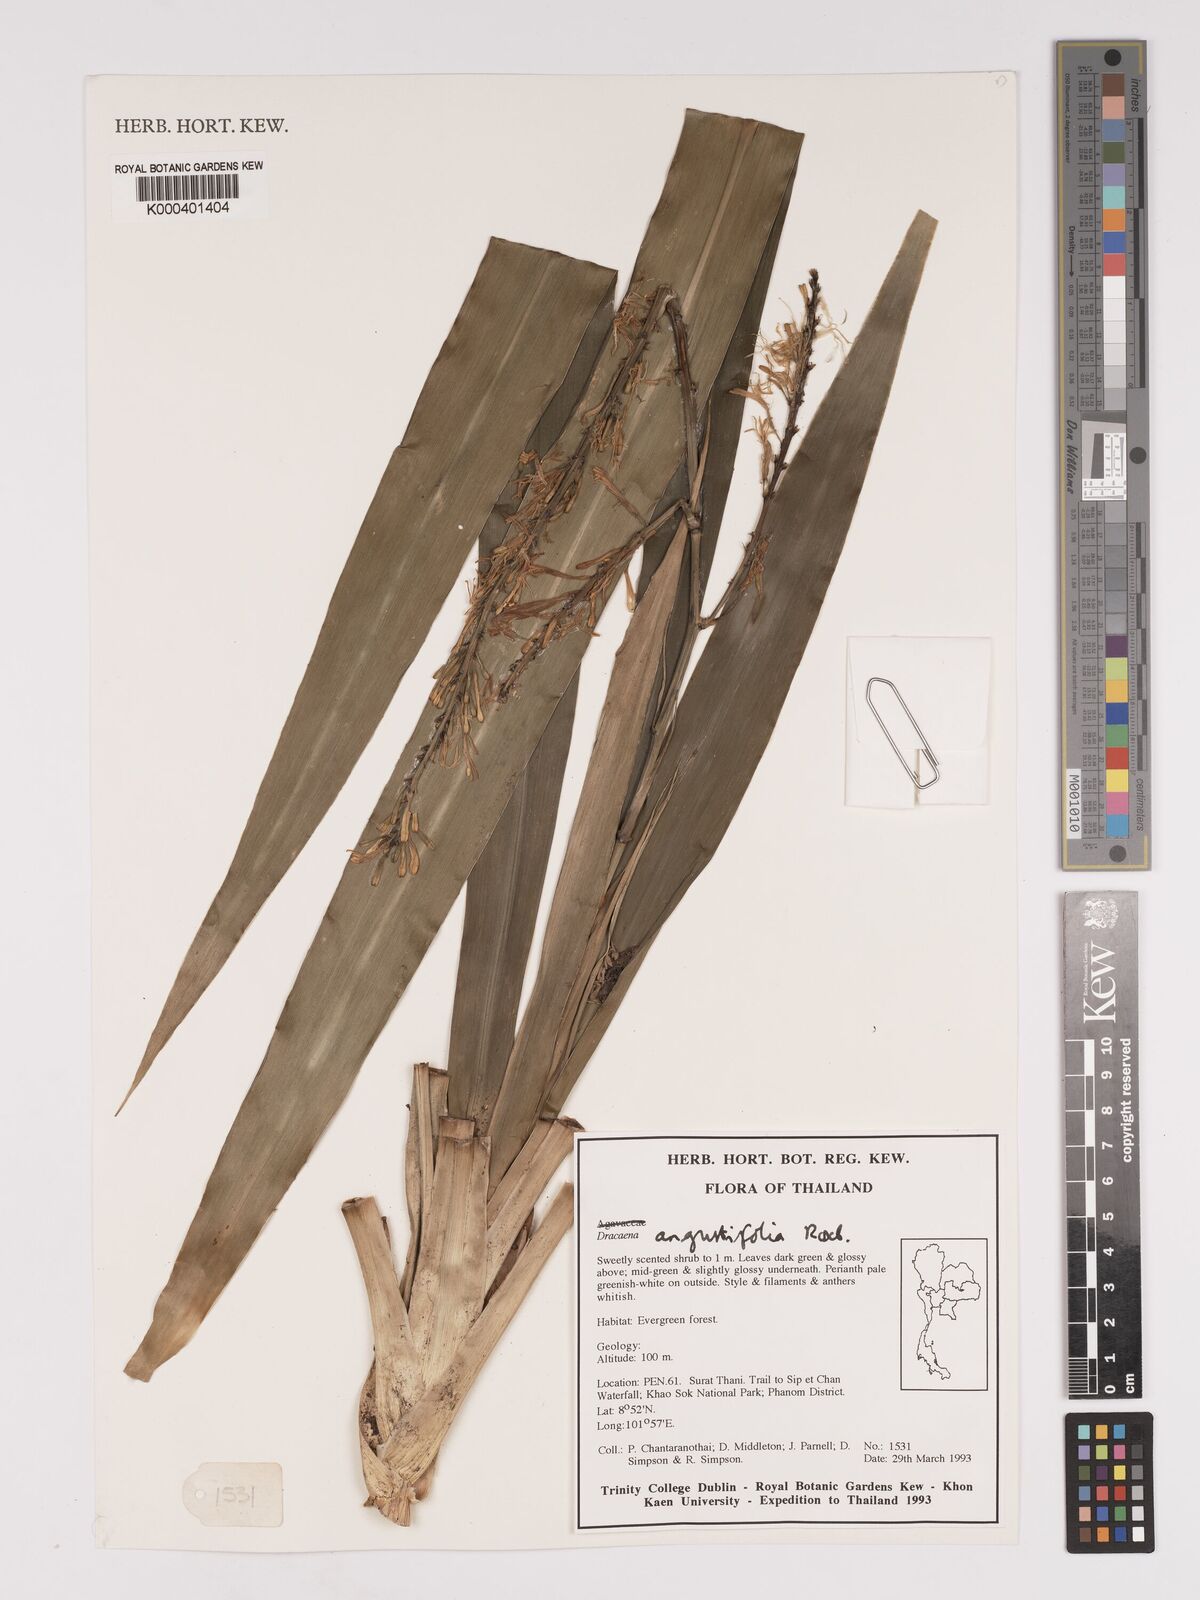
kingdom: Plantae
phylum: Tracheophyta
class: Liliopsida
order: Asparagales
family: Asparagaceae
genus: Dracaena
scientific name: Dracaena angustifolia
